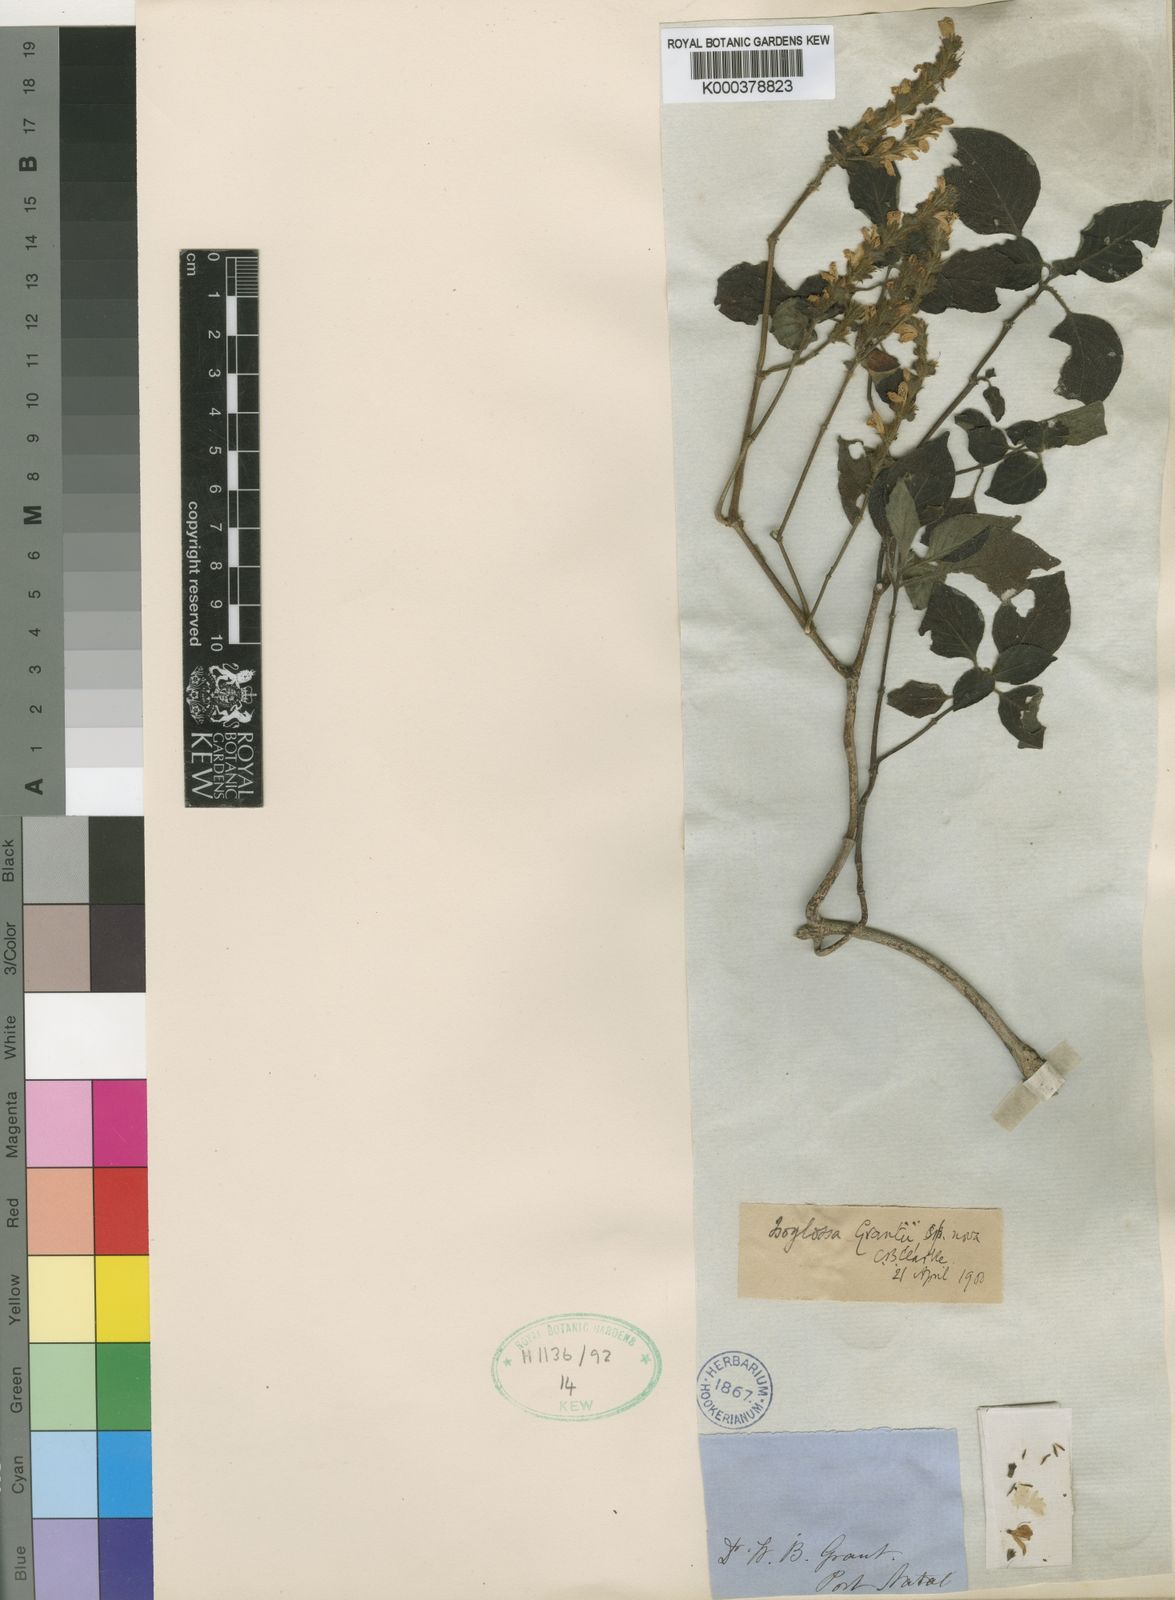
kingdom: Plantae
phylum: Tracheophyta
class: Magnoliopsida
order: Lamiales
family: Acanthaceae
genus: Isoglossa
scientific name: Isoglossa woodii
